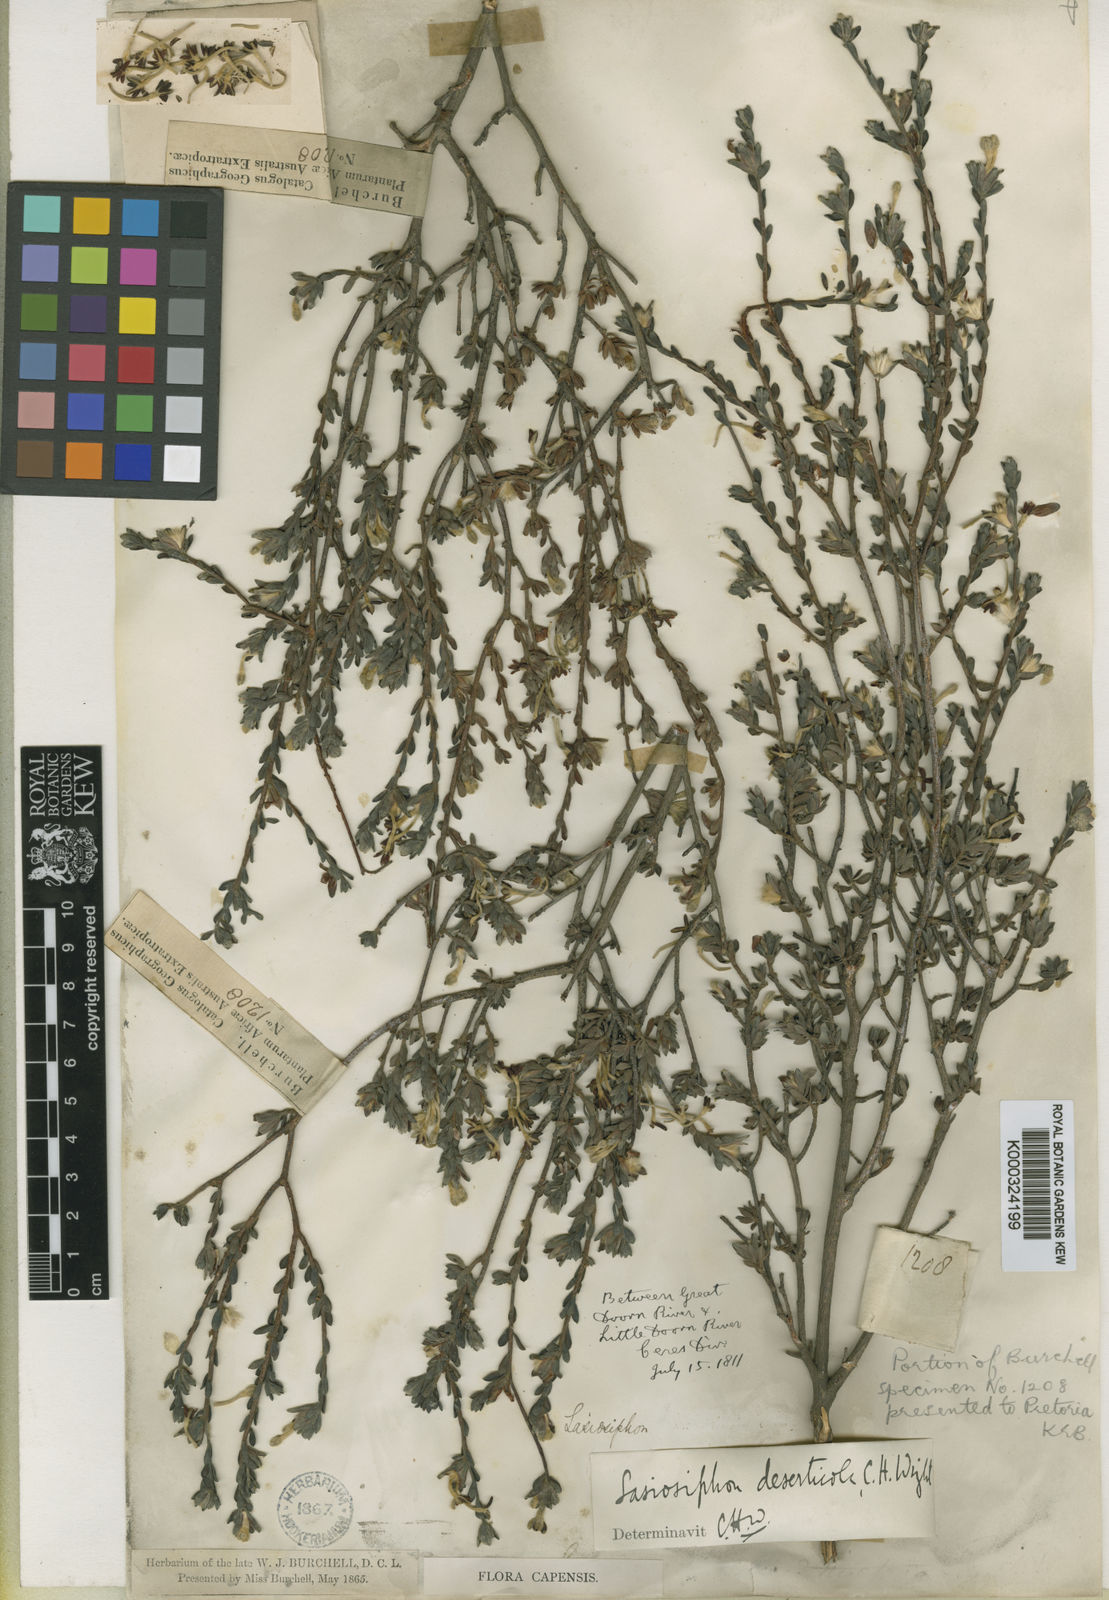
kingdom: Plantae
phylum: Tracheophyta
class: Magnoliopsida
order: Malvales
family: Thymelaeaceae
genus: Gnidia
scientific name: Gnidia deserticola
